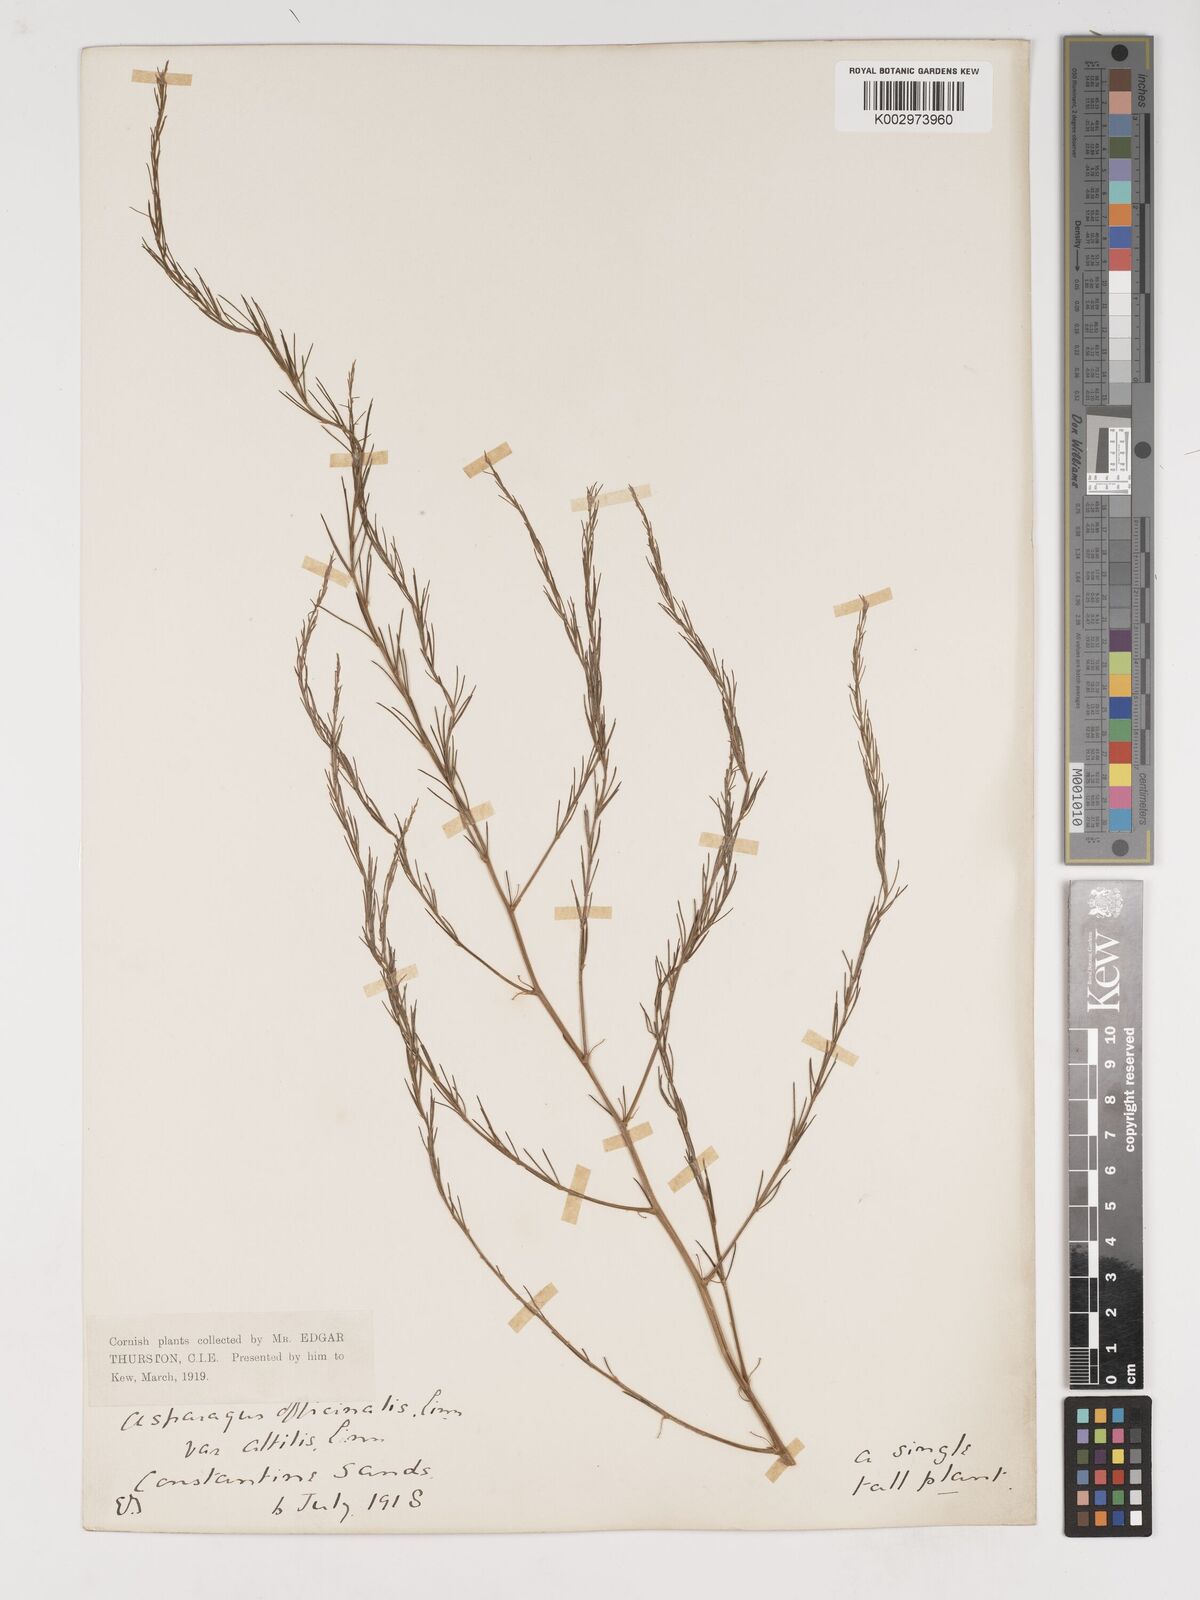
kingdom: Plantae
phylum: Tracheophyta
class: Liliopsida
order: Asparagales
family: Asparagaceae
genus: Asparagus
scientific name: Asparagus officinalis
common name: Garden asparagus
